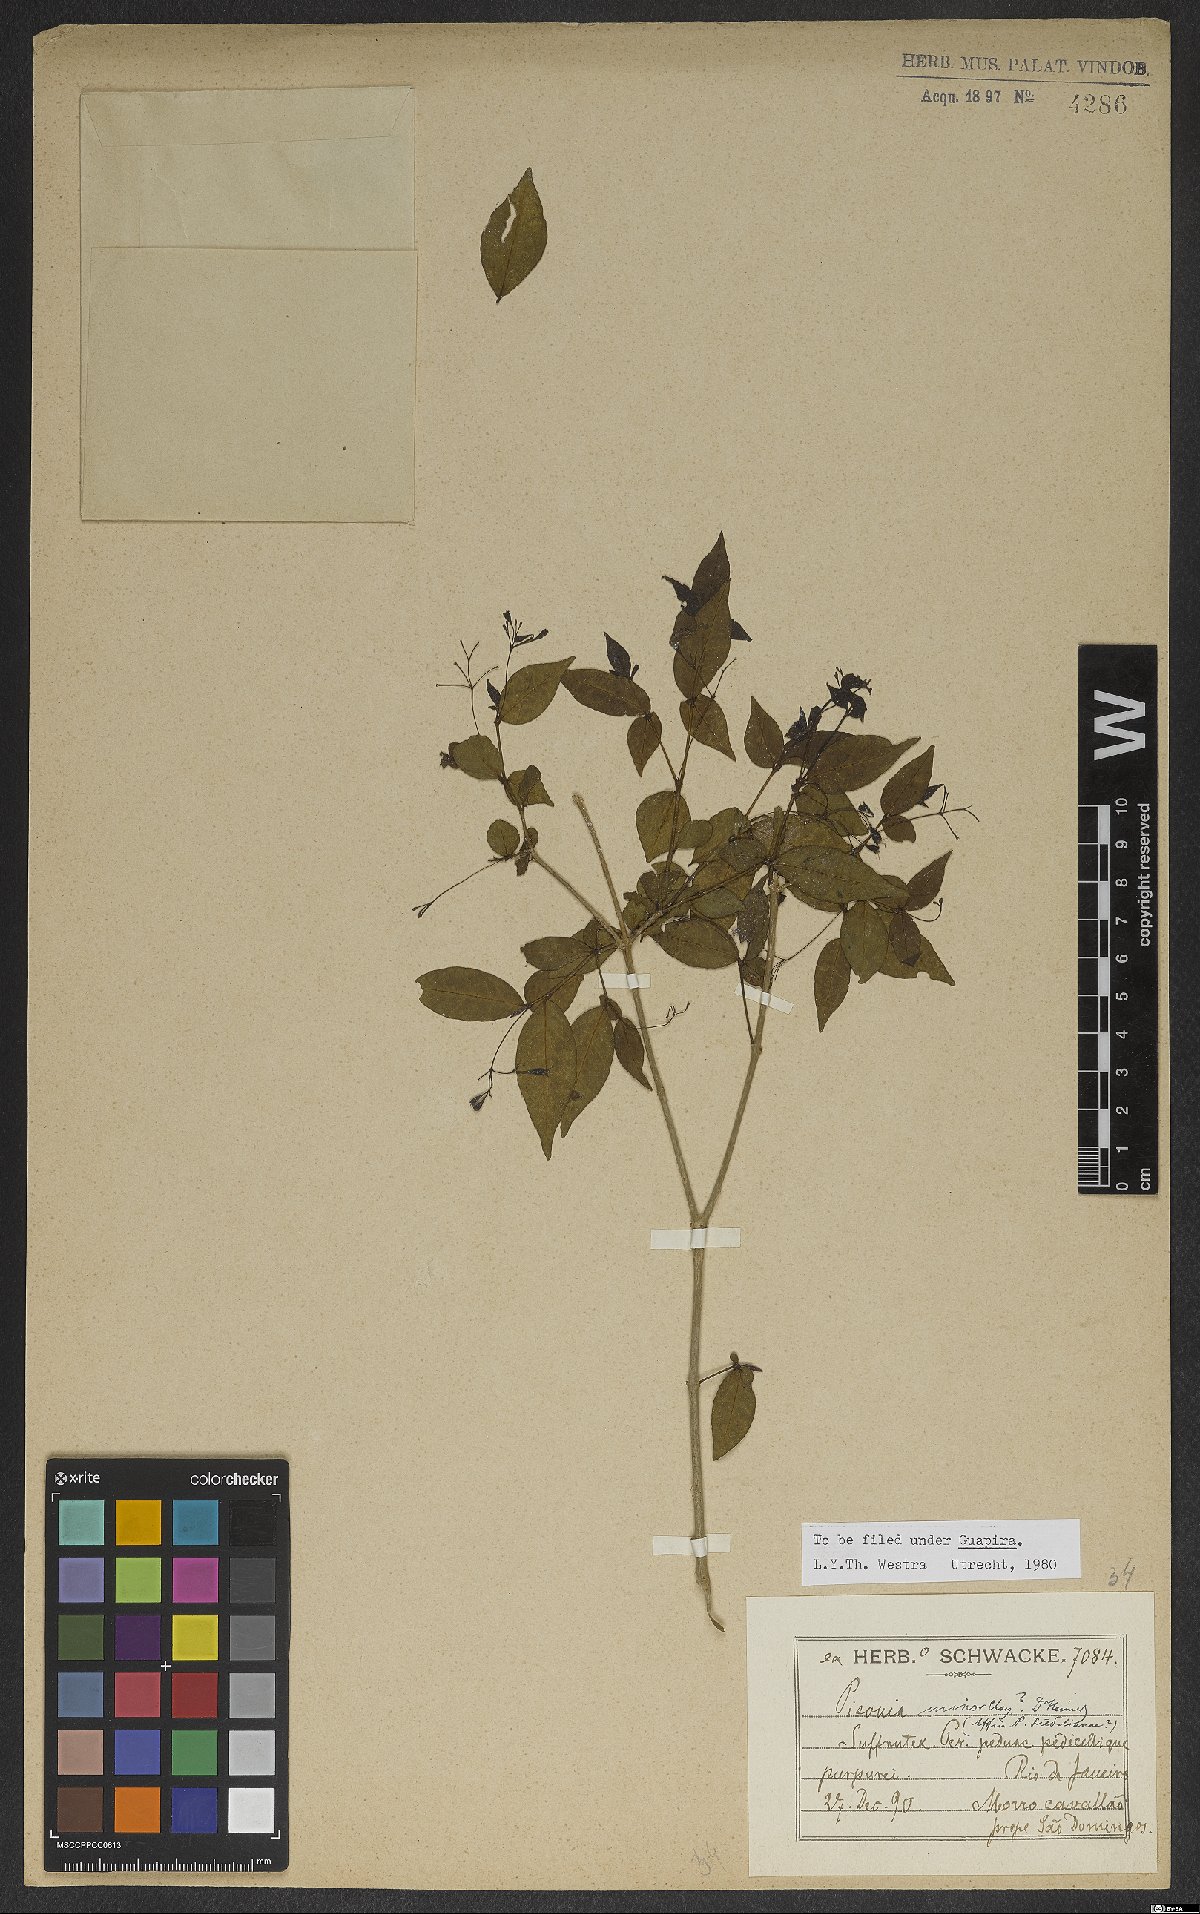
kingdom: Plantae
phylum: Tracheophyta
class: Magnoliopsida
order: Caryophyllales
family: Nyctaginaceae
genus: Pisonia
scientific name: Pisonia aculeata
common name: Cockspur vine
